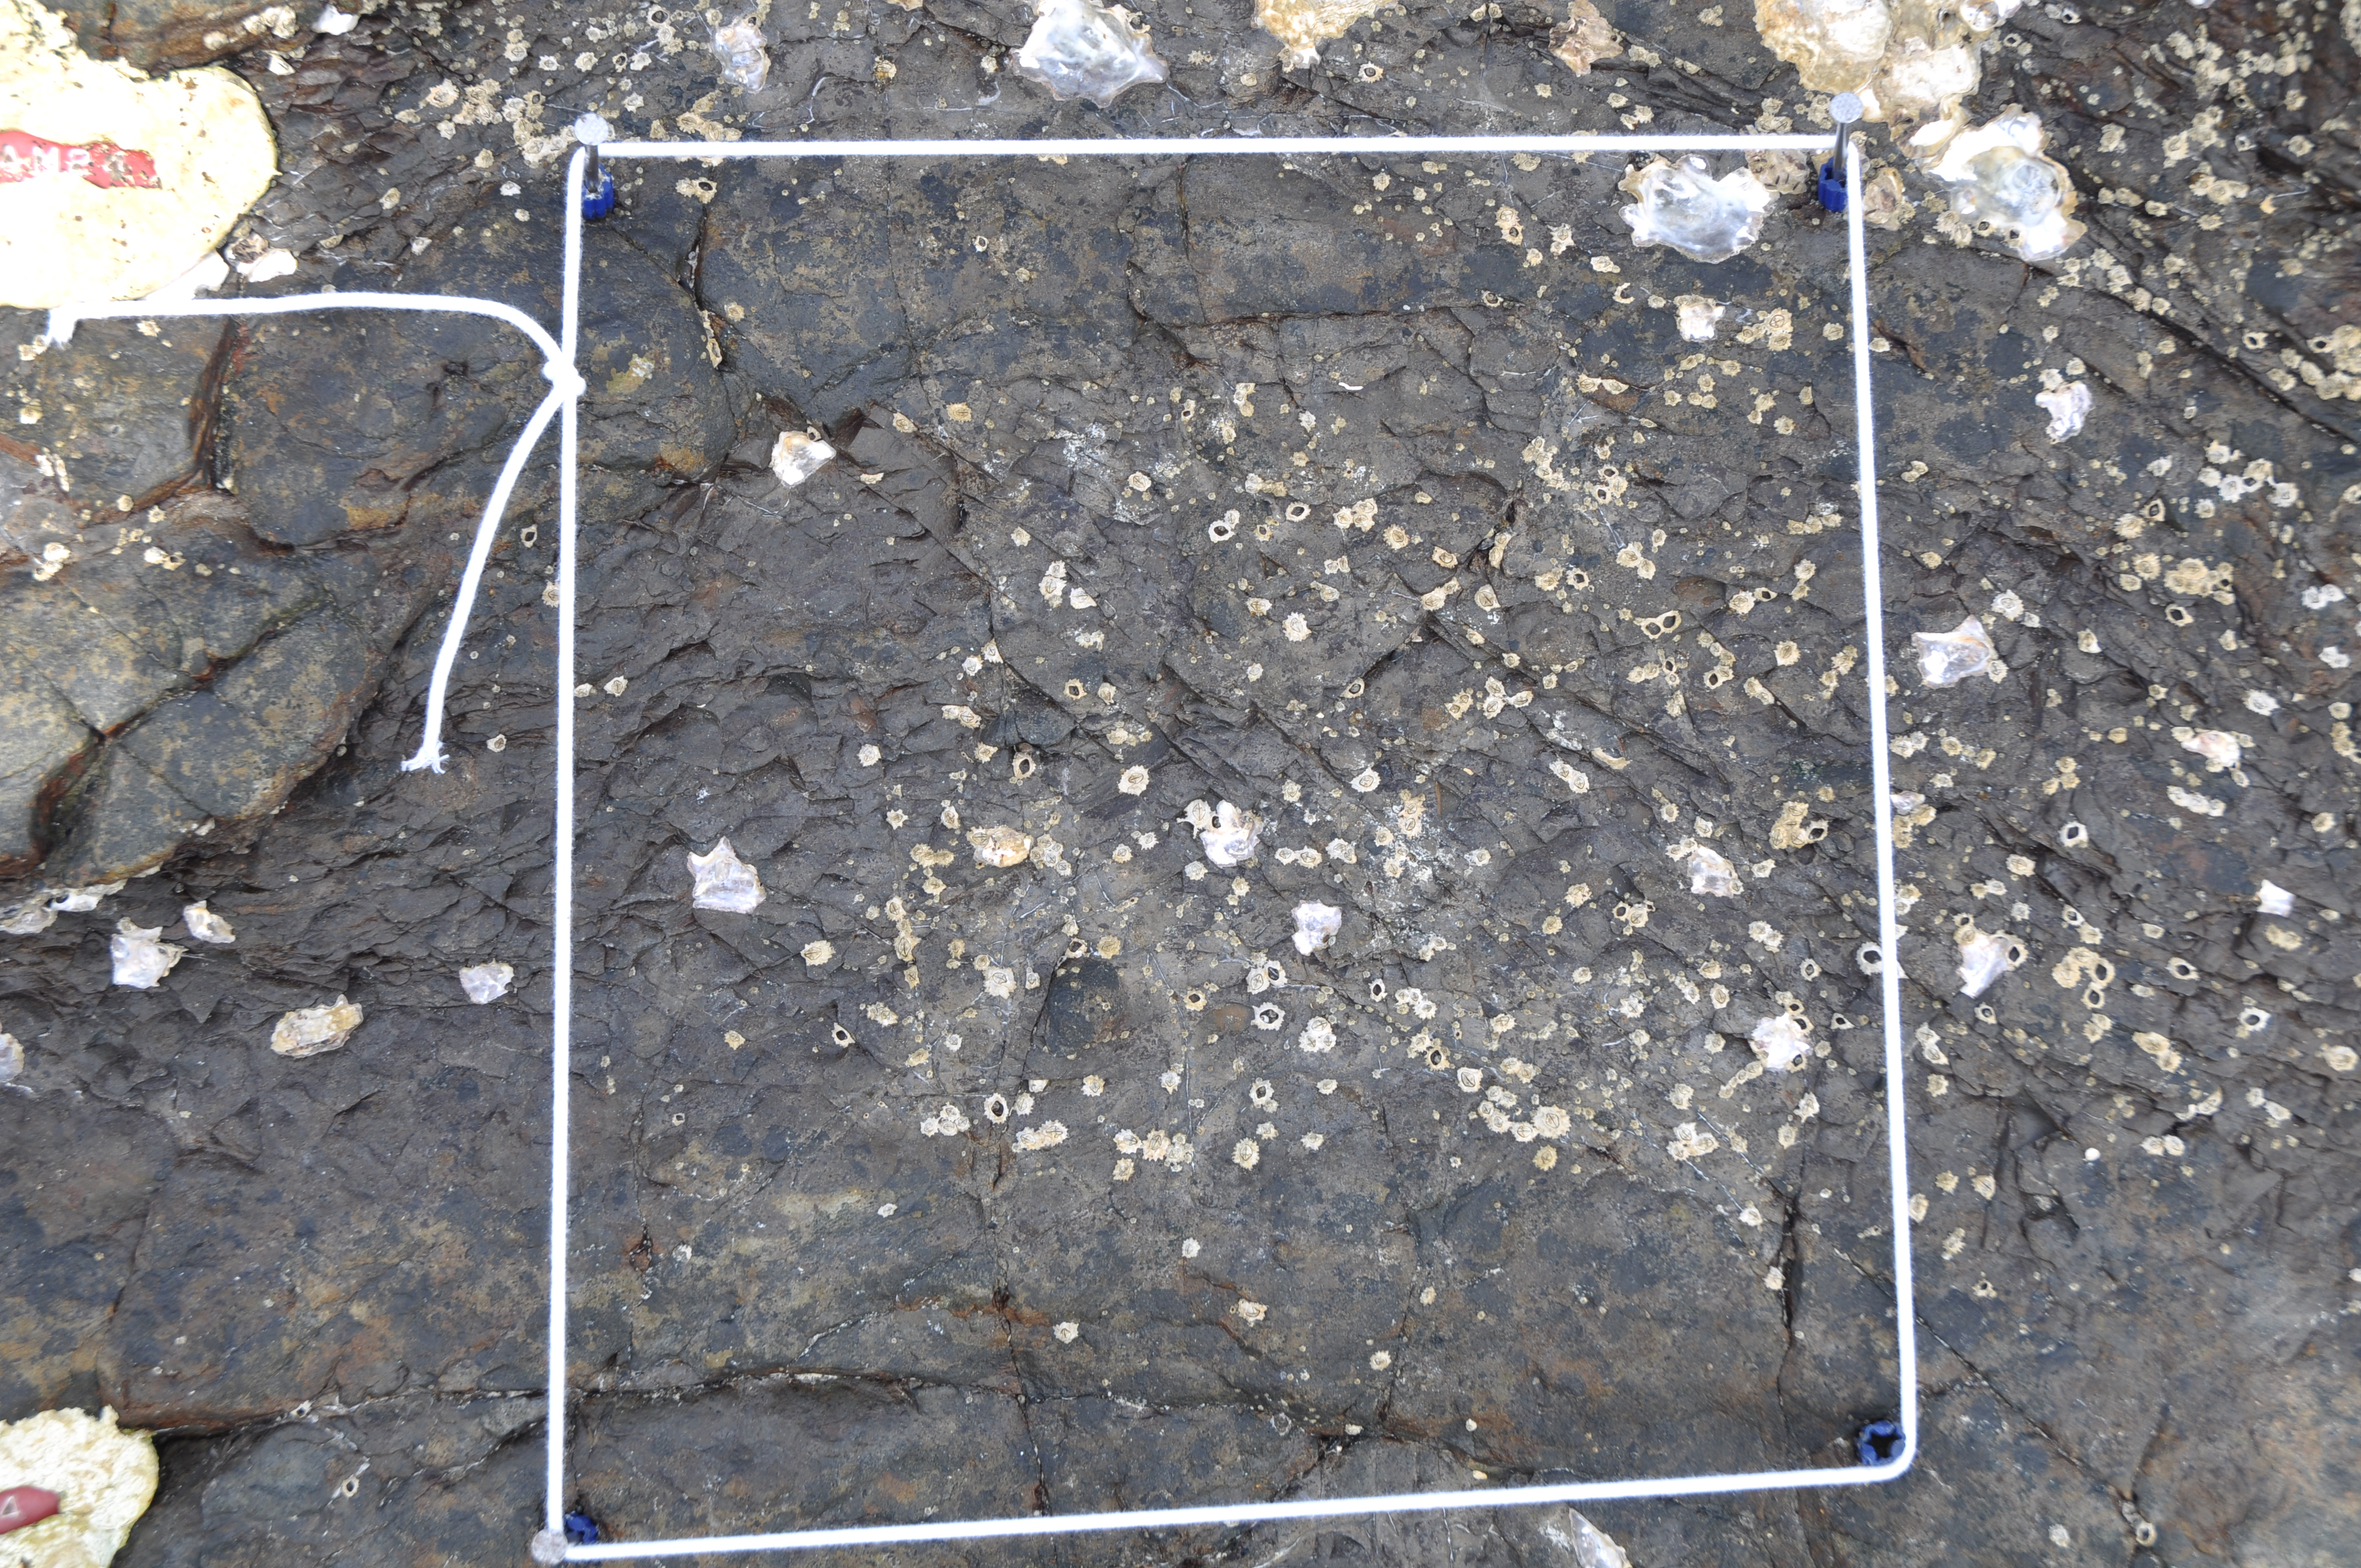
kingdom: Animalia
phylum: Arthropoda
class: Maxillopoda
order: Sessilia
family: Chthamalidae
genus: Chthamalus
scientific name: Chthamalus challengeri
